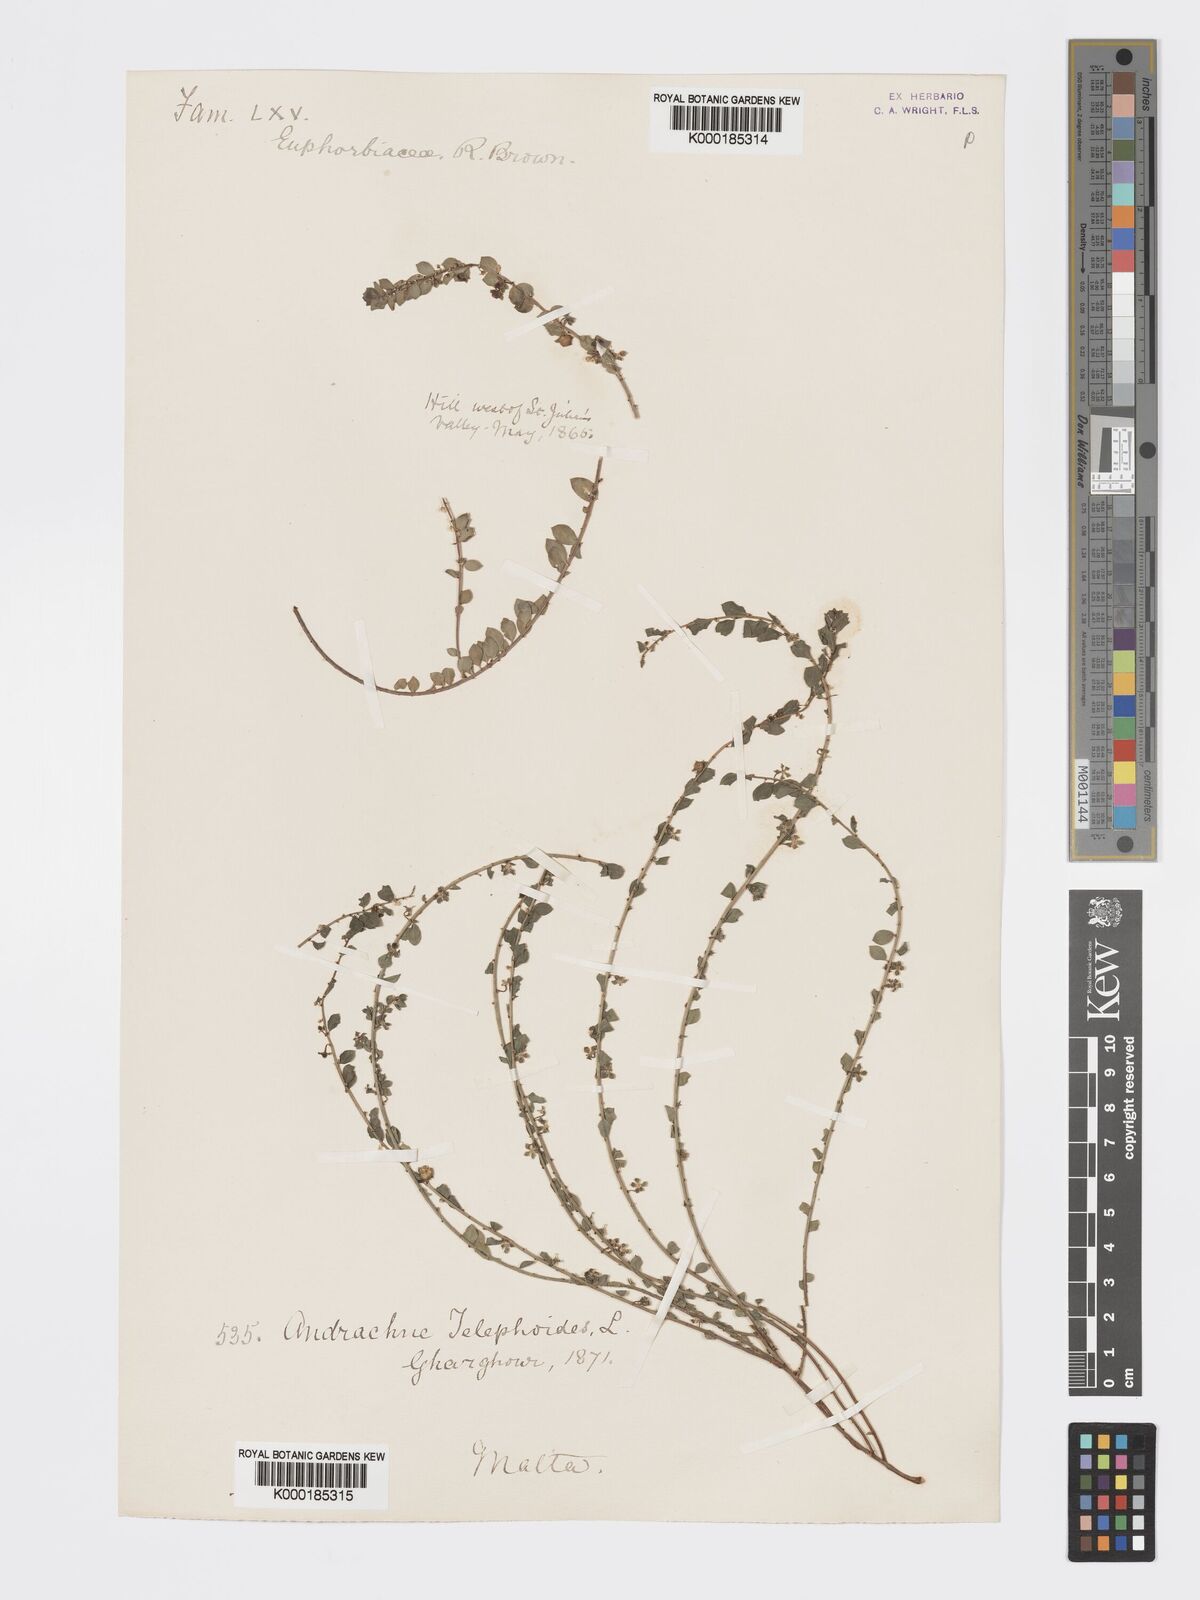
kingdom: Plantae
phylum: Tracheophyta
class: Magnoliopsida
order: Malpighiales
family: Phyllanthaceae
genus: Andrachne
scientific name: Andrachne telephioides
